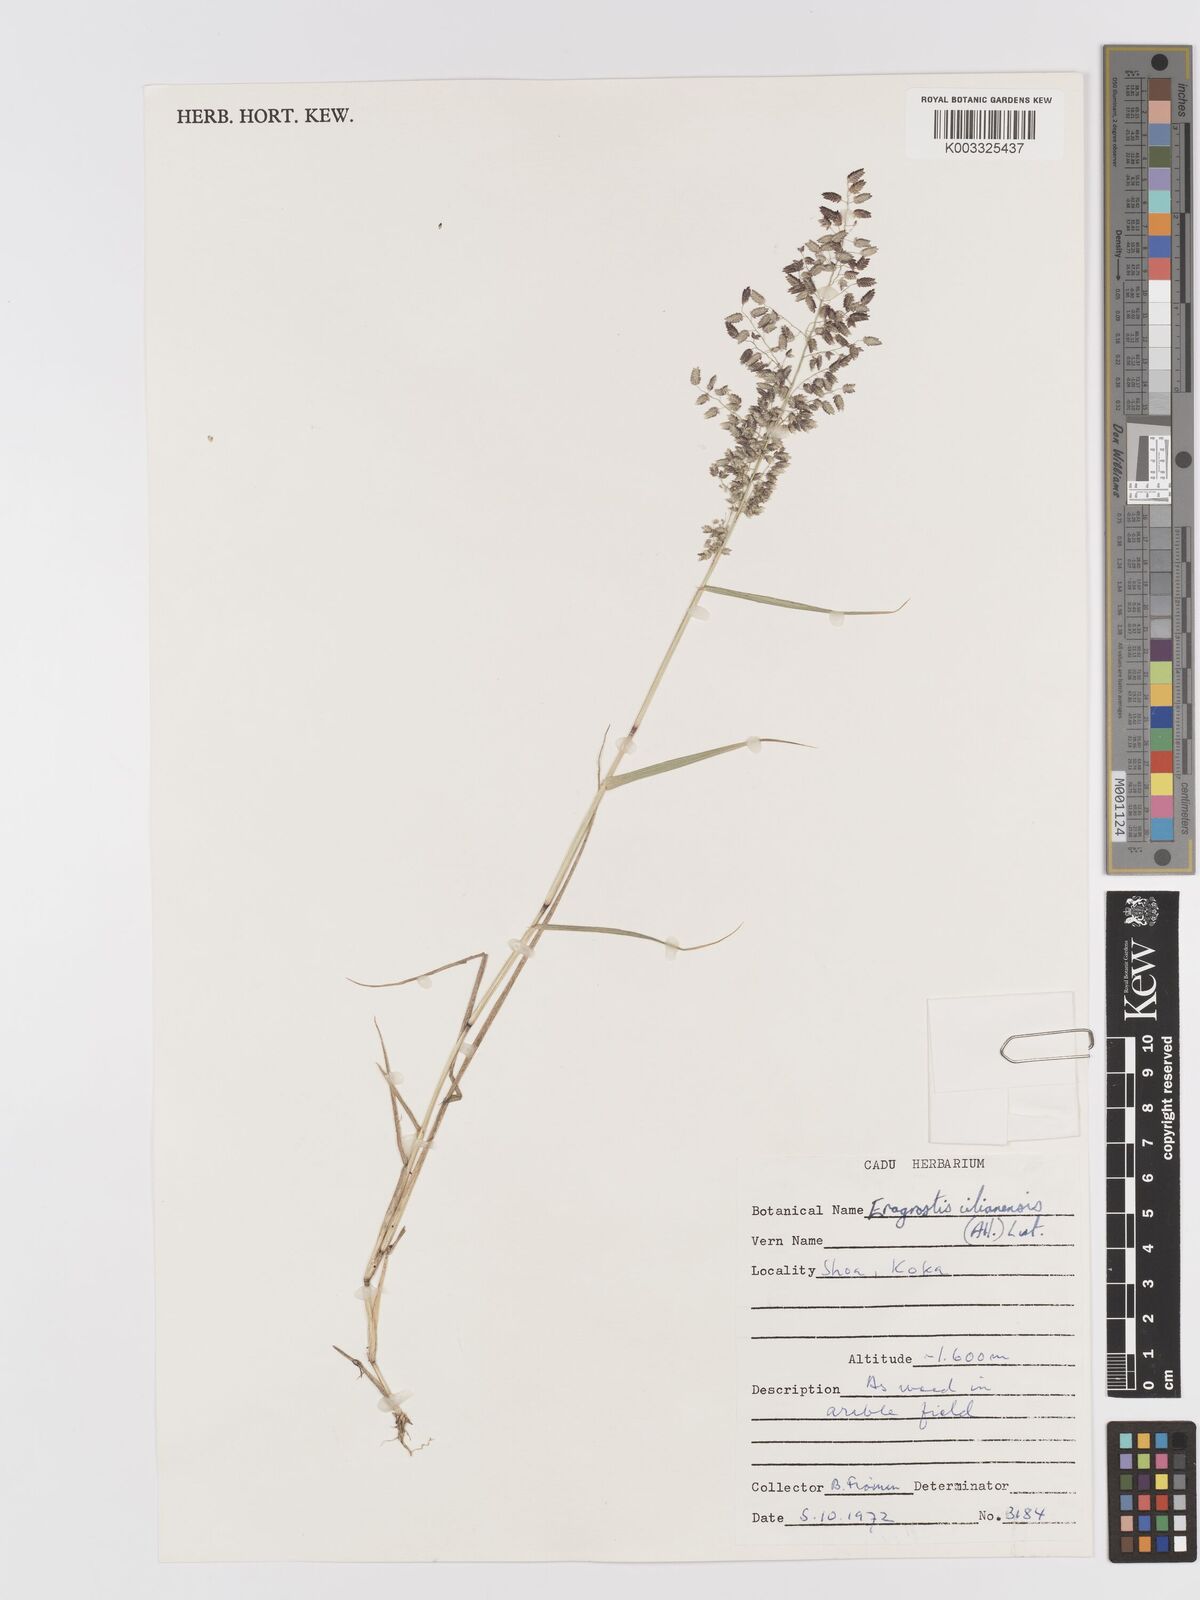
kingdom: Plantae
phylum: Tracheophyta
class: Liliopsida
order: Poales
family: Poaceae
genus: Eragrostis
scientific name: Eragrostis cilianensis
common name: Stinkgrass
